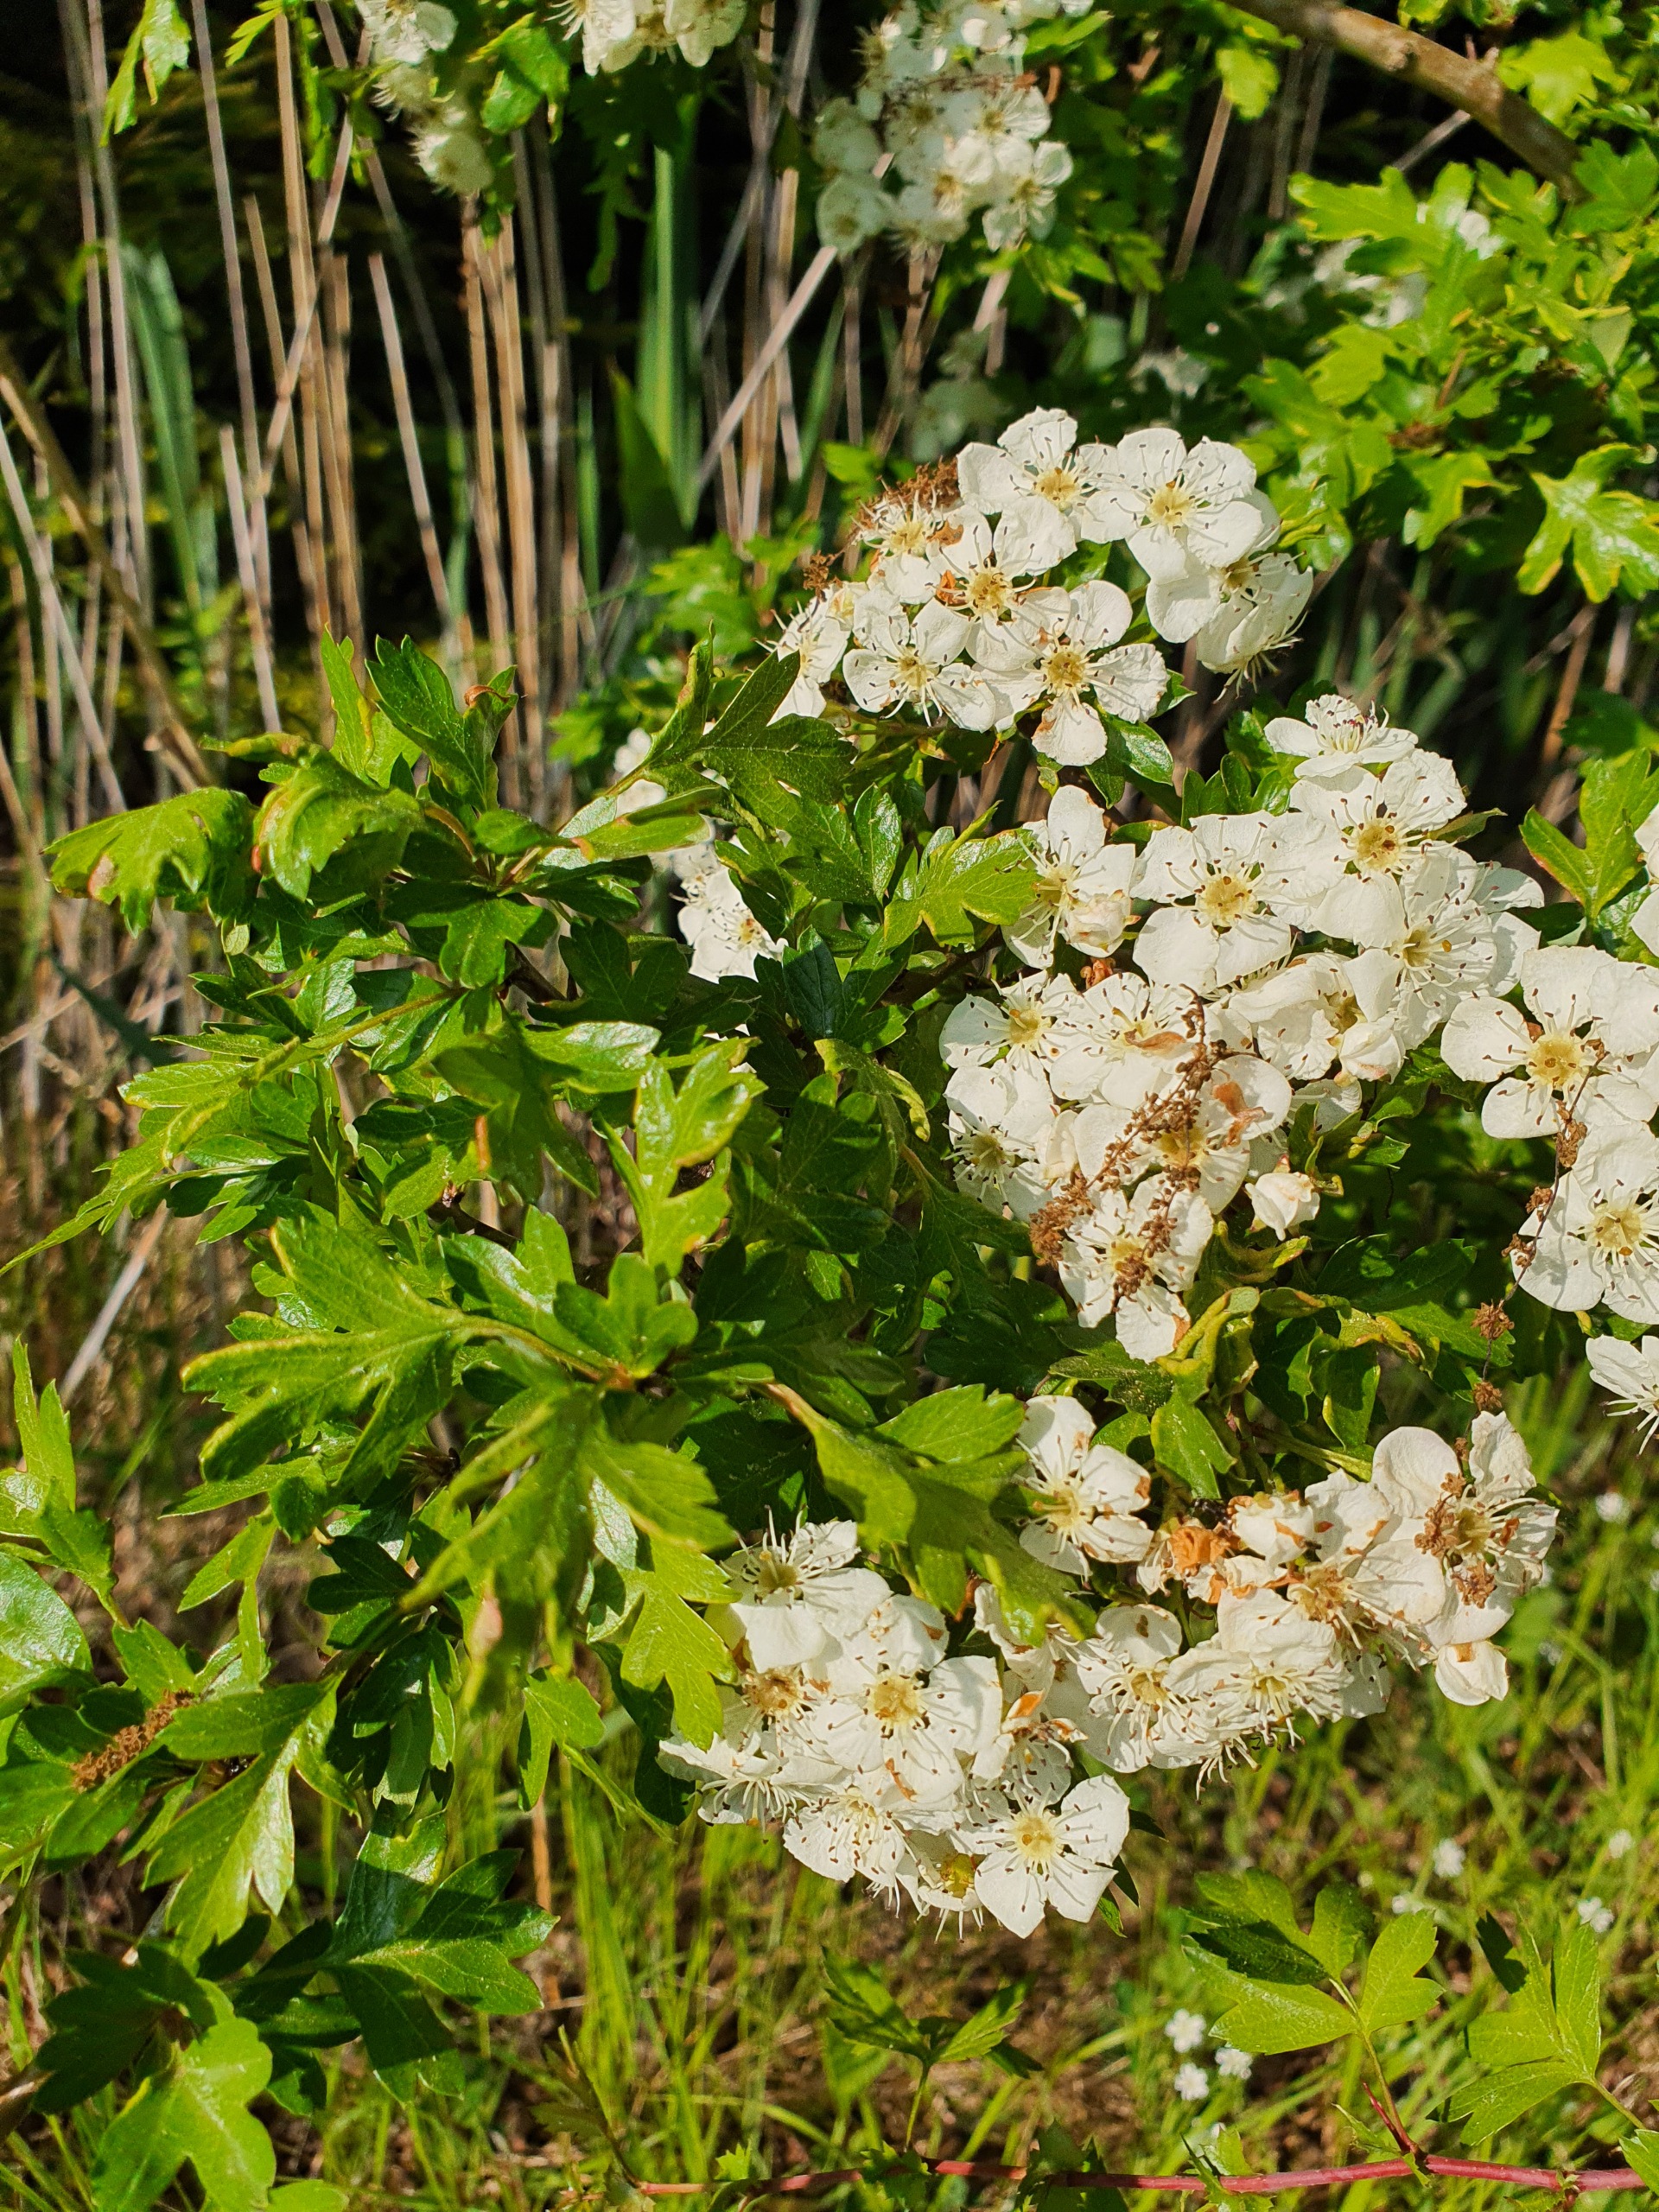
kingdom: Plantae
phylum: Tracheophyta
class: Magnoliopsida
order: Rosales
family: Rosaceae
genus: Crataegus
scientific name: Crataegus monogyna
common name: Engriflet hvidtjørn
